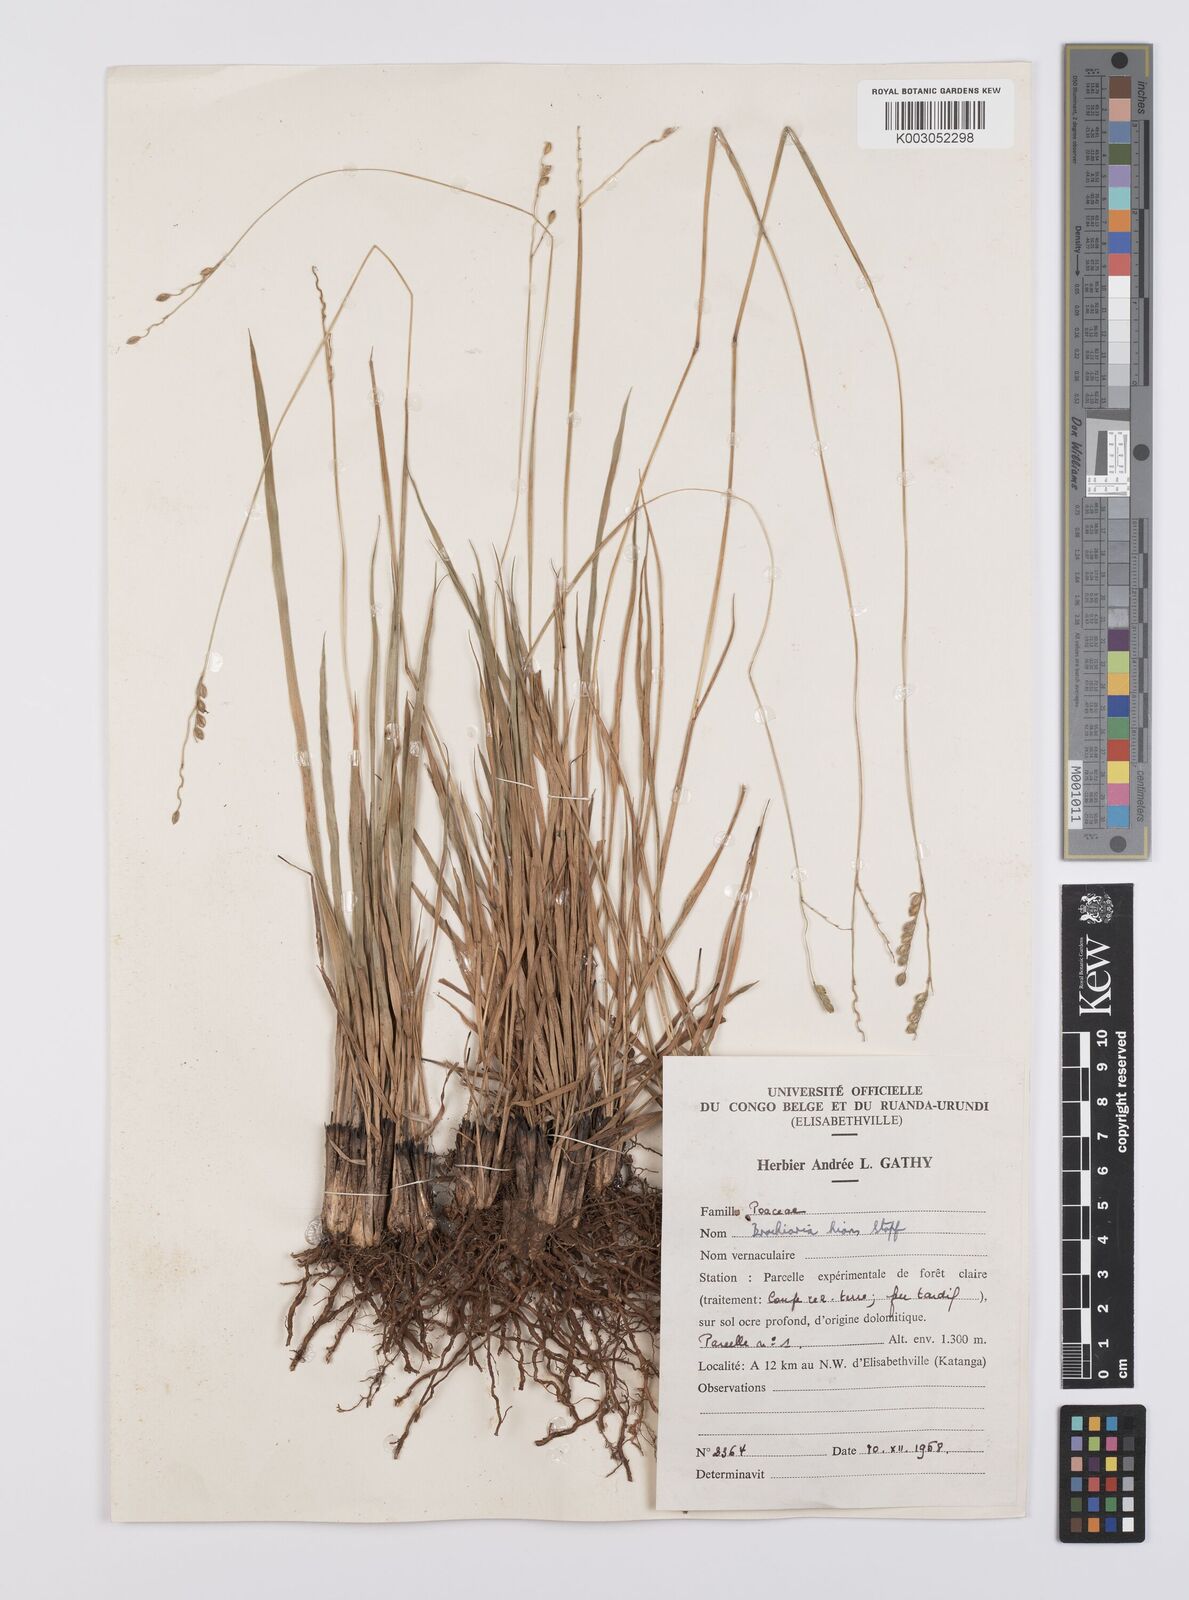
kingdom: Plantae
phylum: Tracheophyta
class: Liliopsida
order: Poales
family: Poaceae
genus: Urochloa
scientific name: Urochloa bovonei
